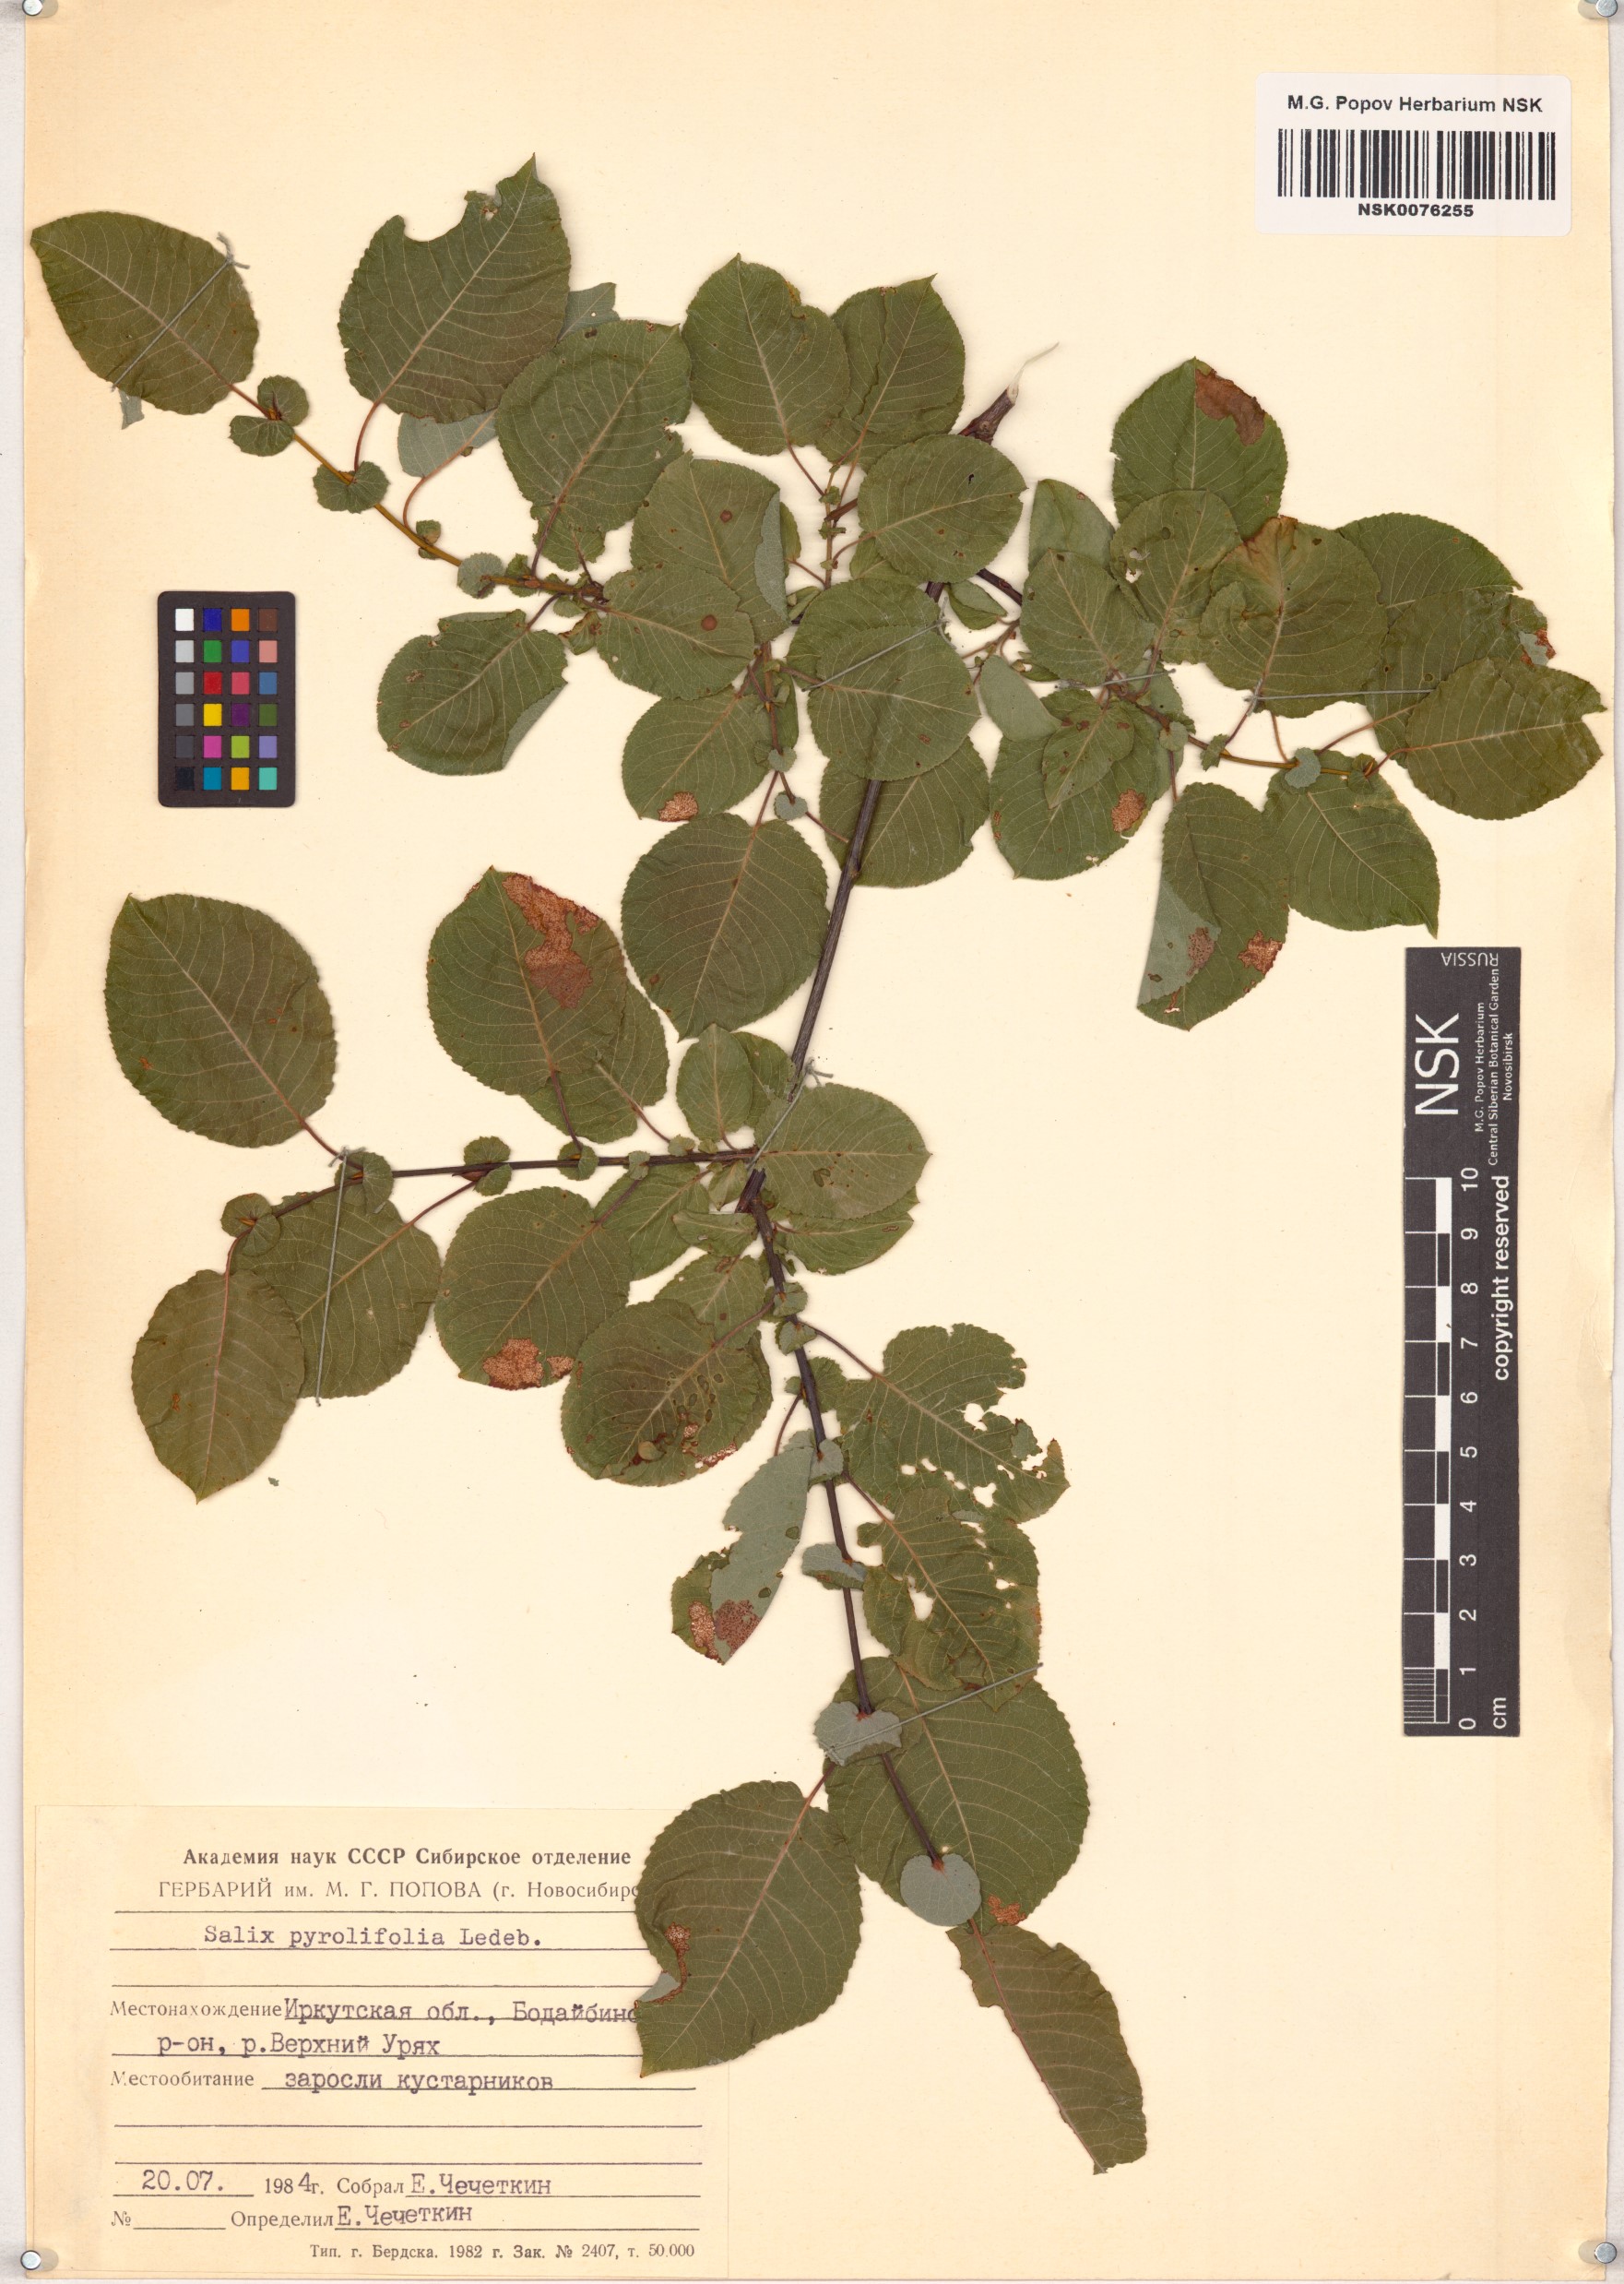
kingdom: Plantae
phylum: Tracheophyta
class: Magnoliopsida
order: Malpighiales
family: Salicaceae
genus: Salix
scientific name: Salix pyrolifolia
